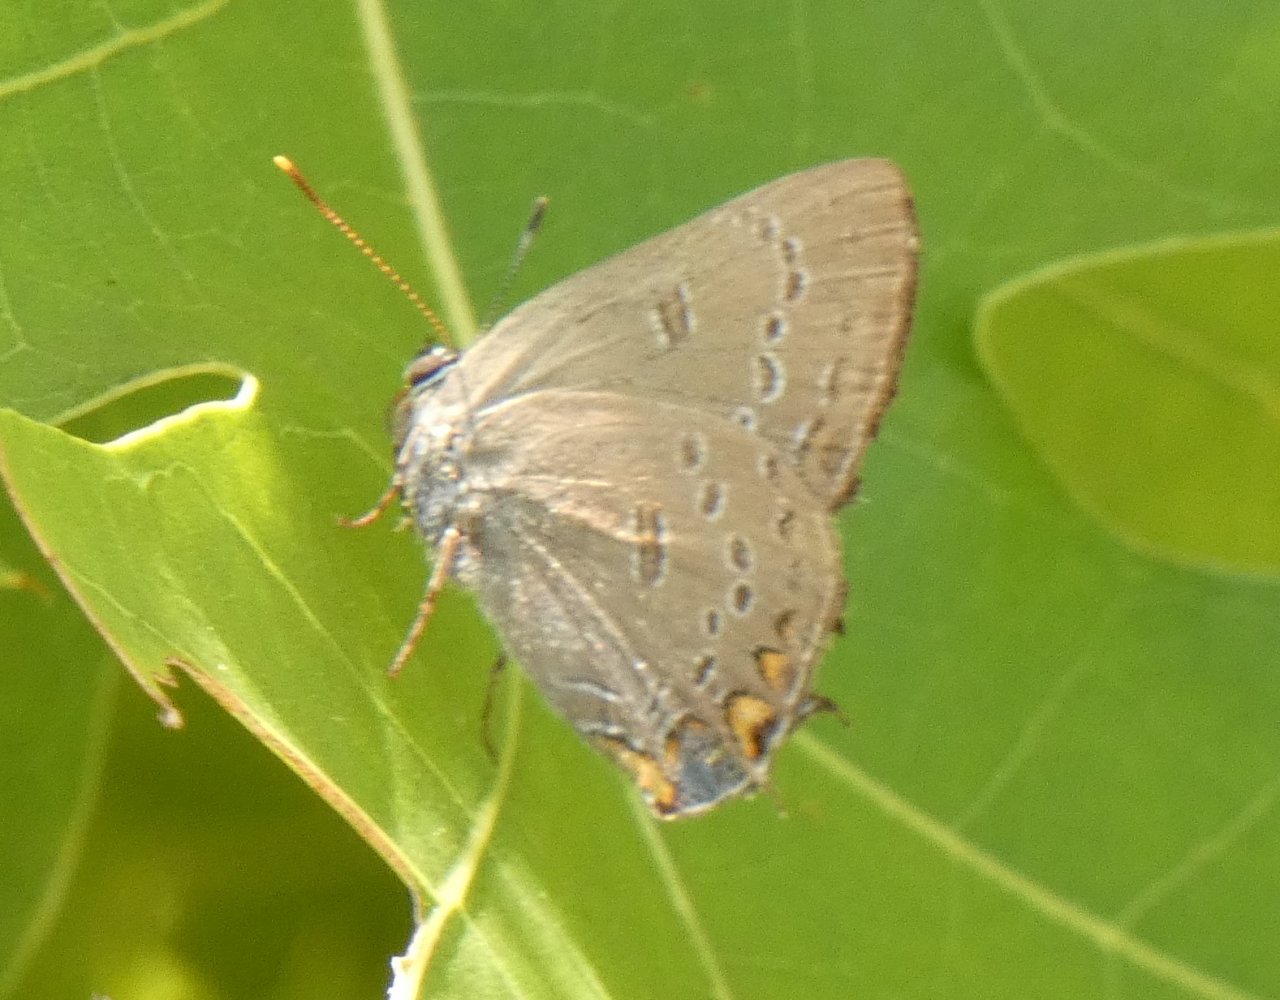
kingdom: Animalia
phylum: Arthropoda
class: Insecta
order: Lepidoptera
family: Lycaenidae
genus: Satyrium
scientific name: Satyrium edwardsii
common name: Edwards' Hairstreak
